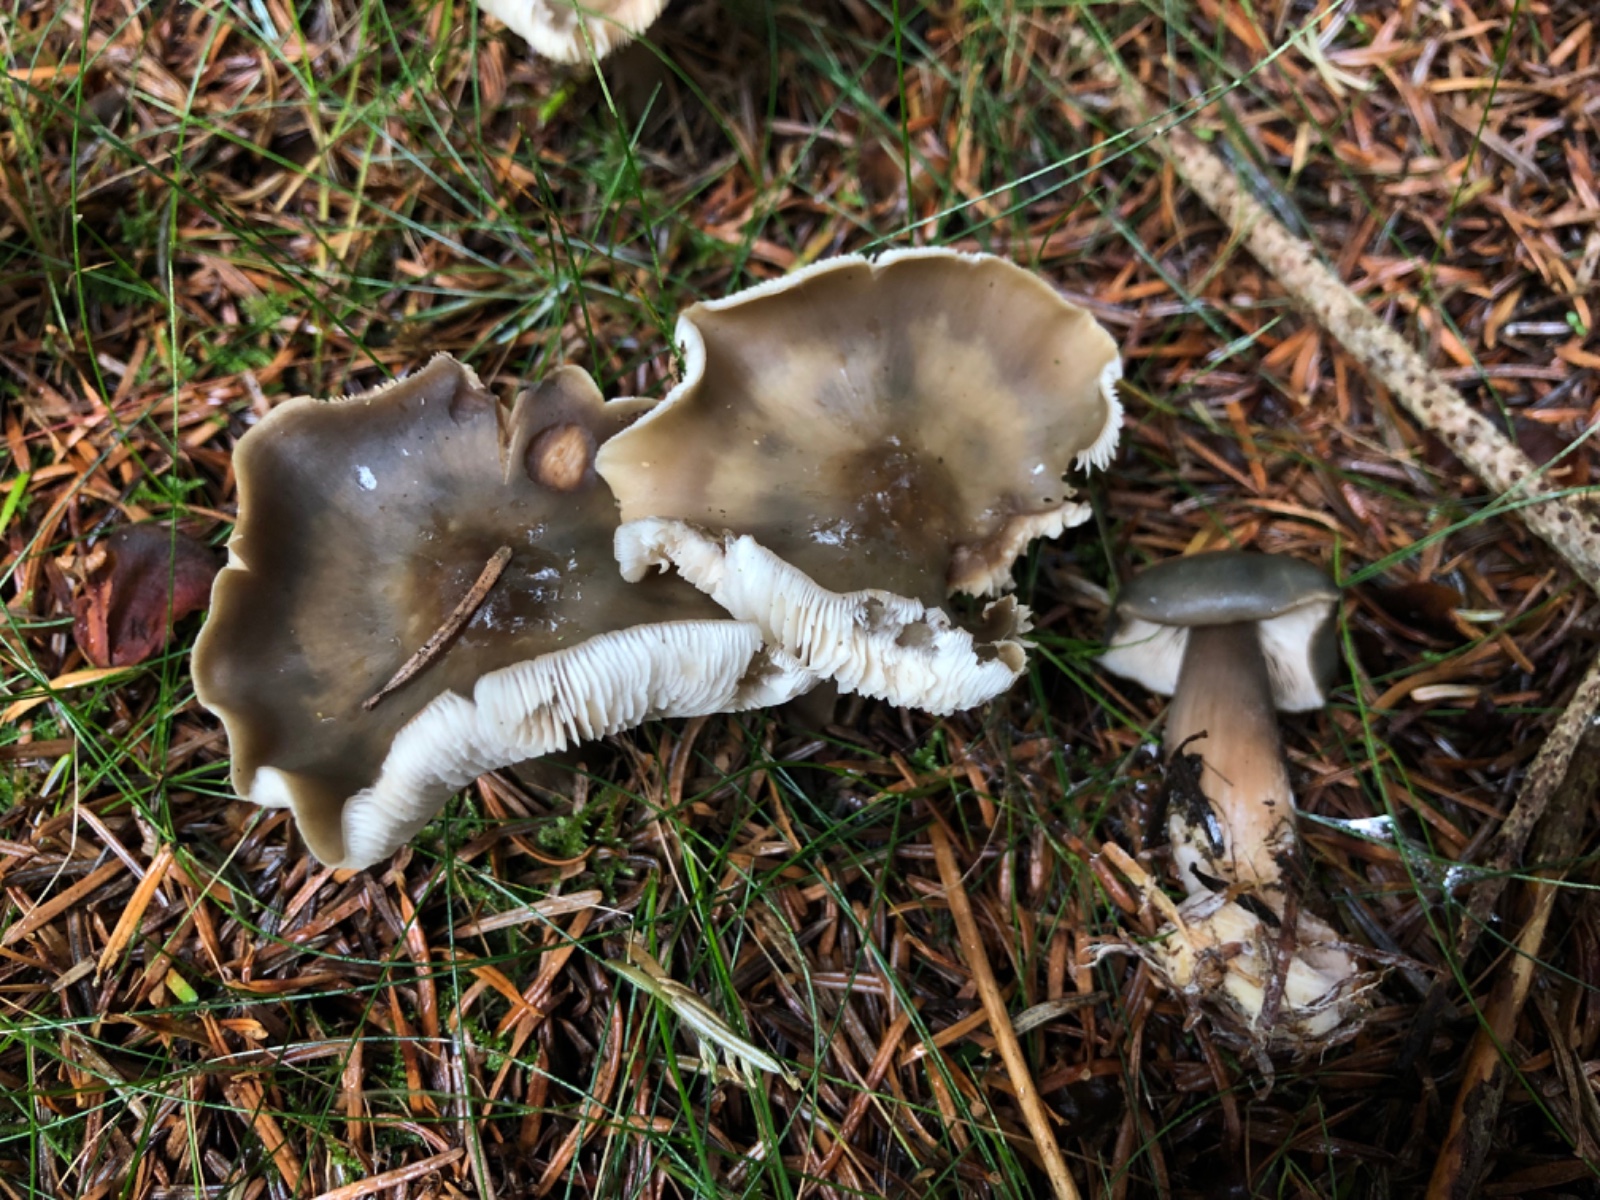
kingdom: Fungi
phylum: Basidiomycota
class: Agaricomycetes
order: Agaricales
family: Omphalotaceae
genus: Rhodocollybia
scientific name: Rhodocollybia butyracea
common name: keglestokket fladhat
